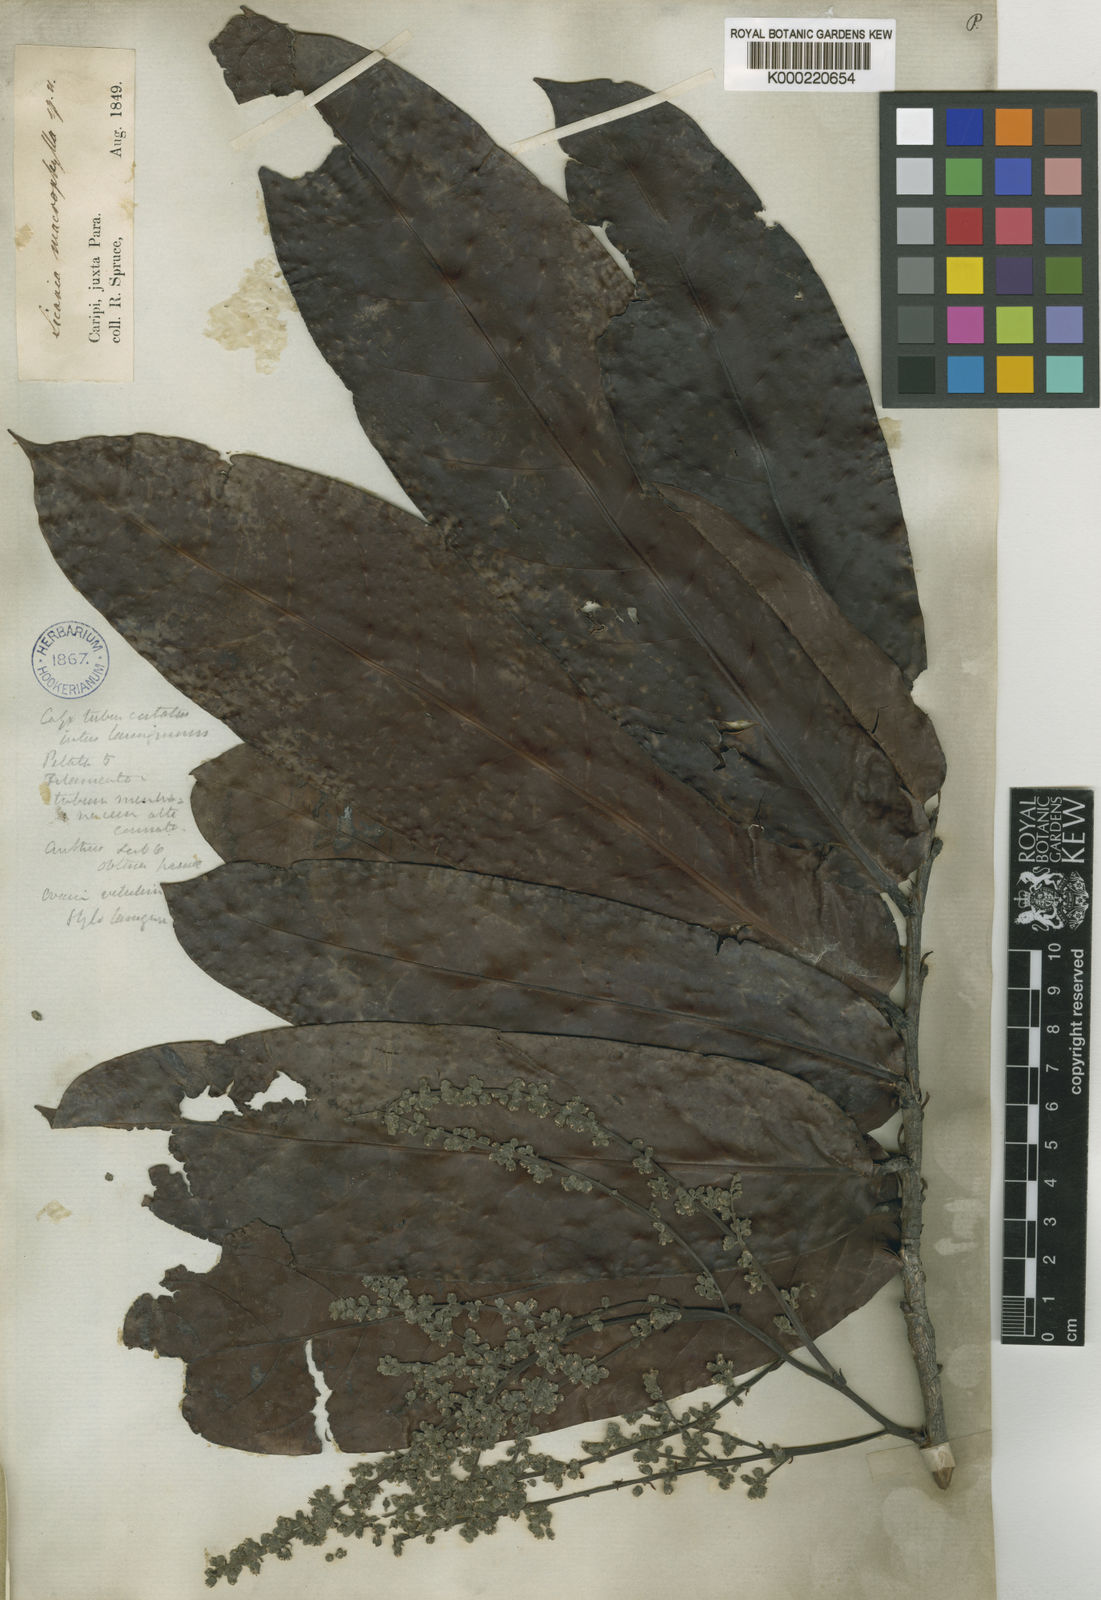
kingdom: Plantae
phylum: Tracheophyta
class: Magnoliopsida
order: Malpighiales
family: Chrysobalanaceae
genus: Hymenopus
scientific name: Hymenopus macrophyllus
